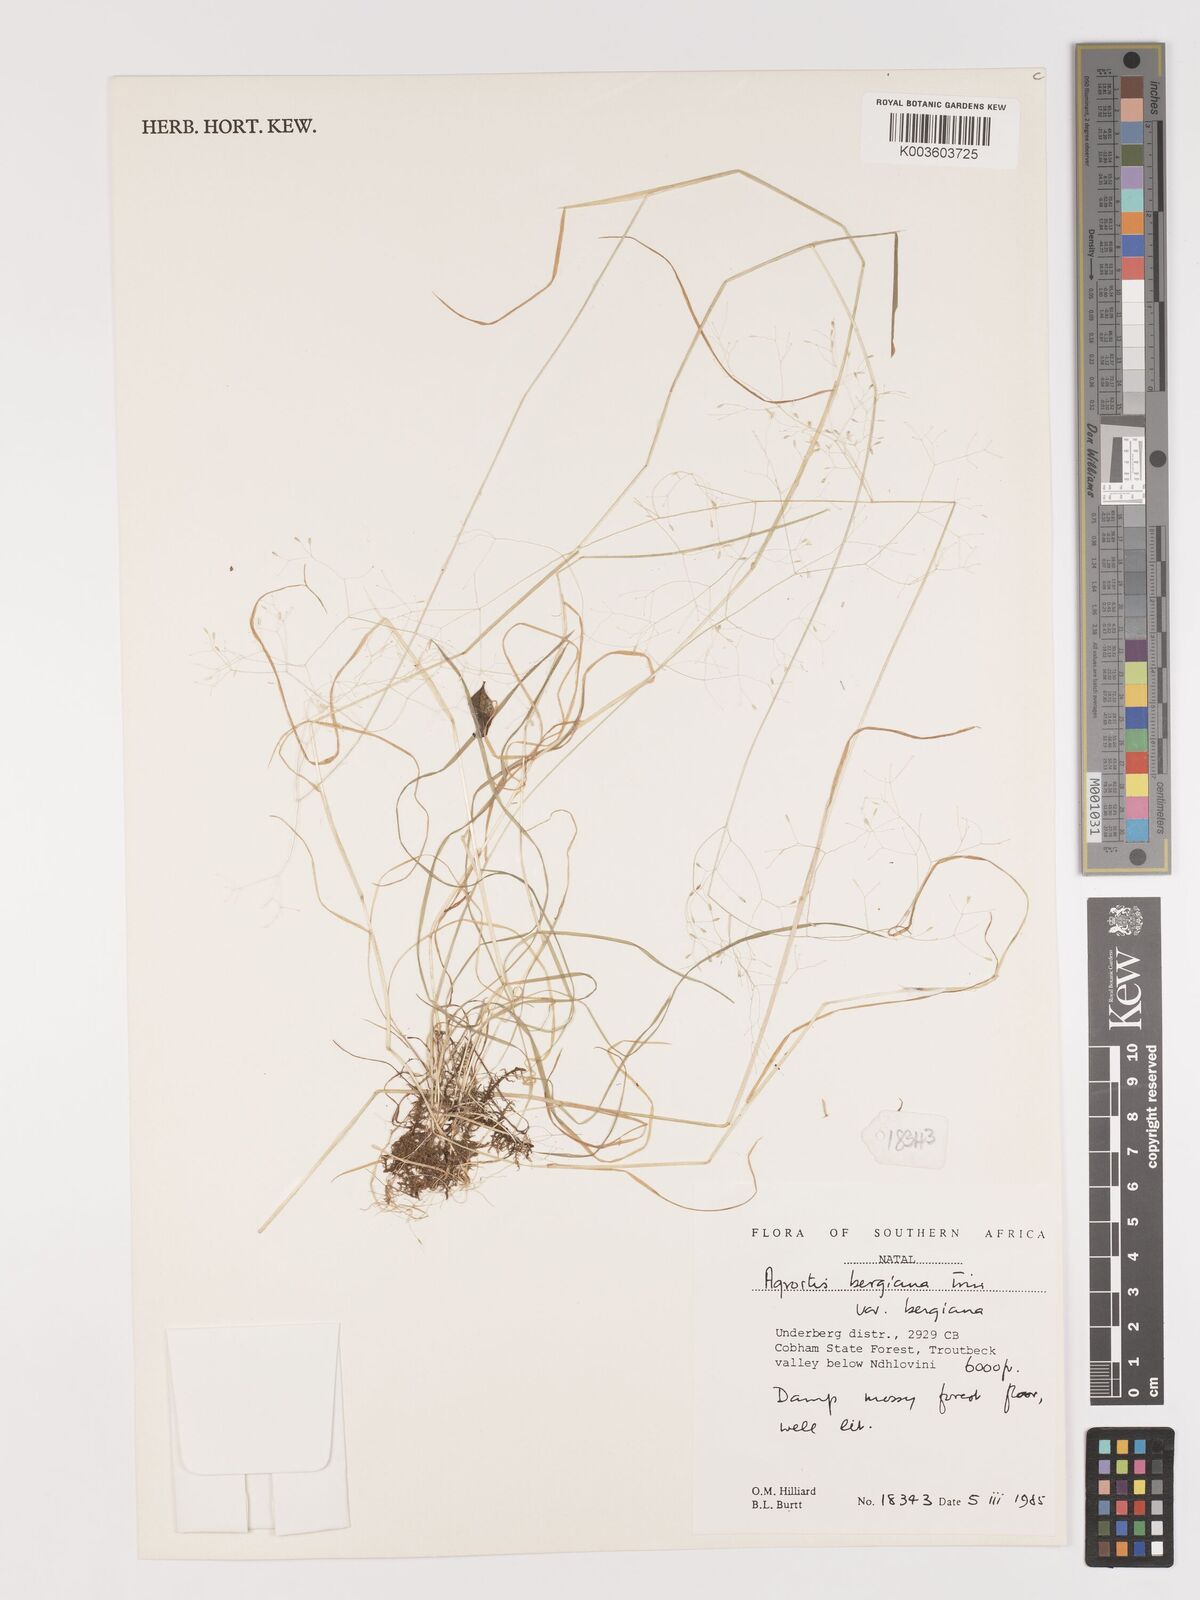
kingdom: Plantae
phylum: Tracheophyta
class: Liliopsida
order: Poales
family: Poaceae
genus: Agrostis
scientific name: Agrostis bergiana
